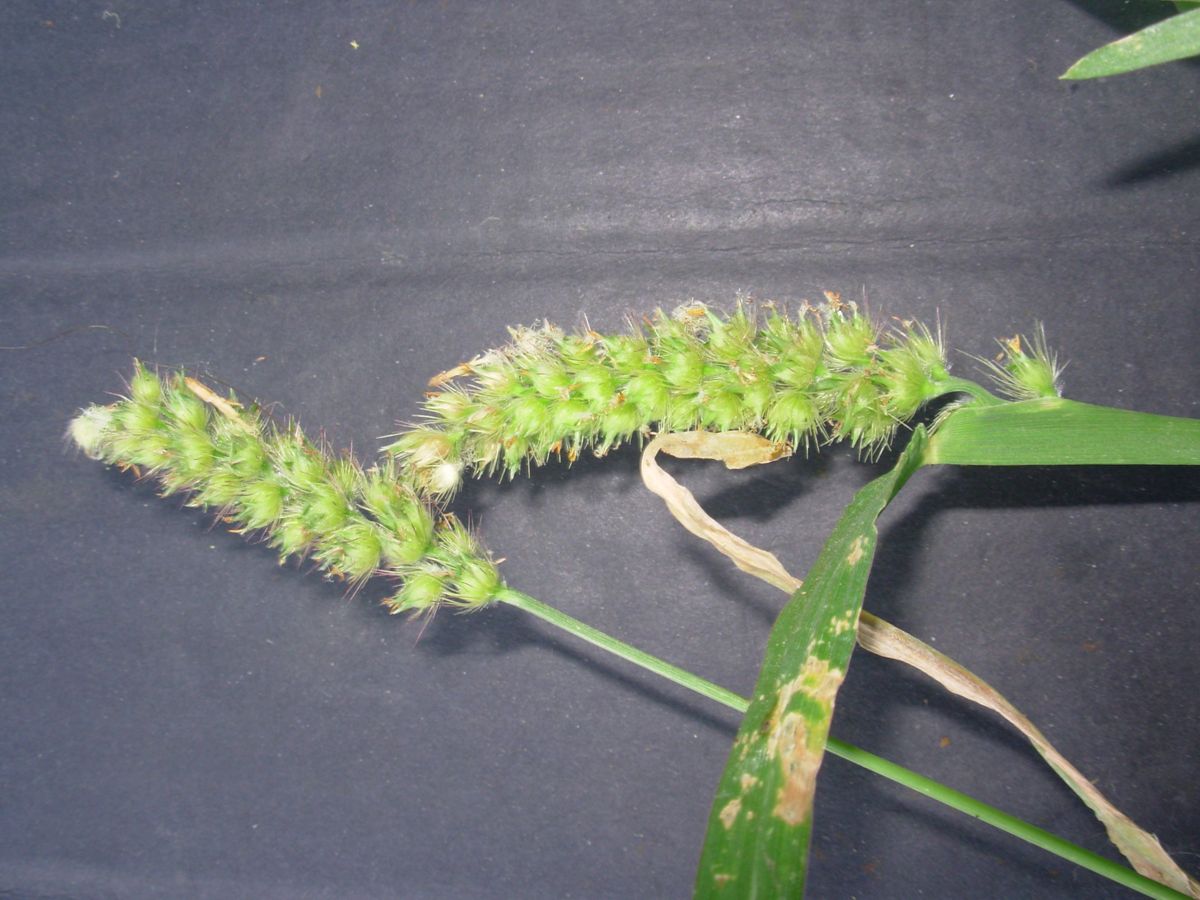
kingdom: Plantae
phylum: Tracheophyta
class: Liliopsida
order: Poales
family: Poaceae
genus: Cenchrus
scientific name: Cenchrus brownii
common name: Slim-bristle sandbur
